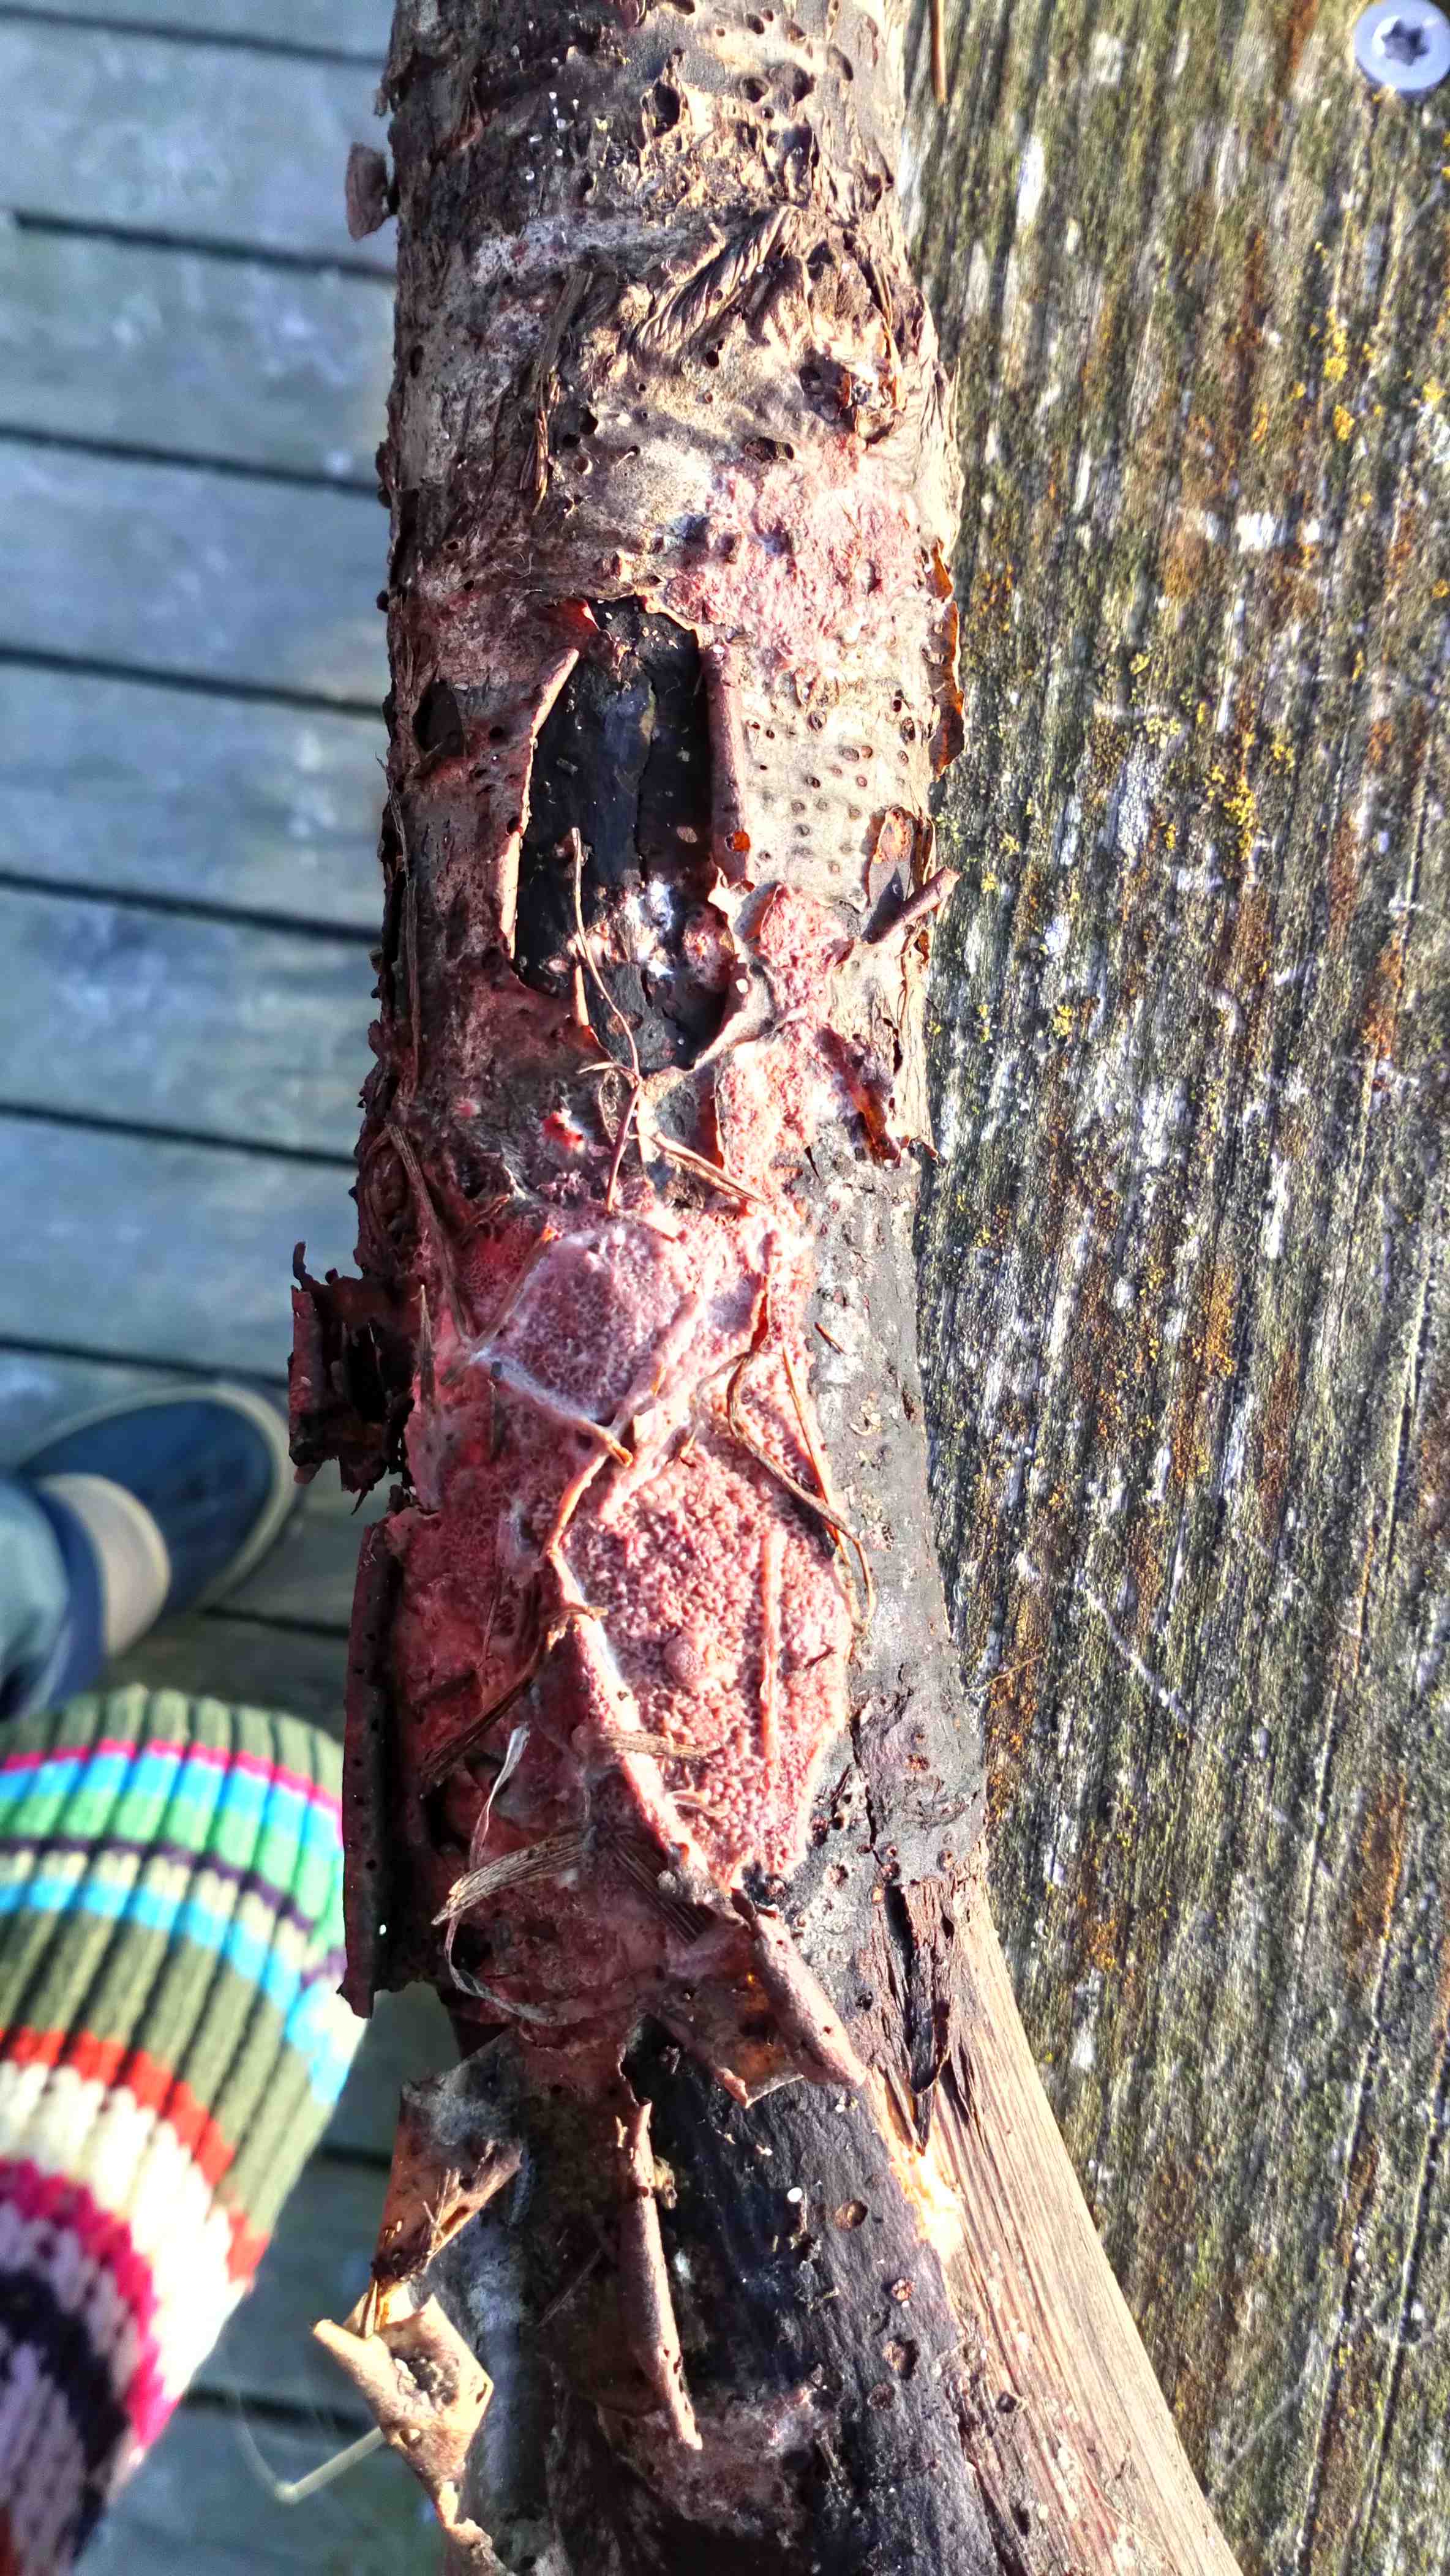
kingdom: Fungi
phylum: Basidiomycota
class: Agaricomycetes
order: Polyporales
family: Meruliaceae
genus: Phlebia
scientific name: Phlebia tremellosa
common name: bævrende åresvamp
